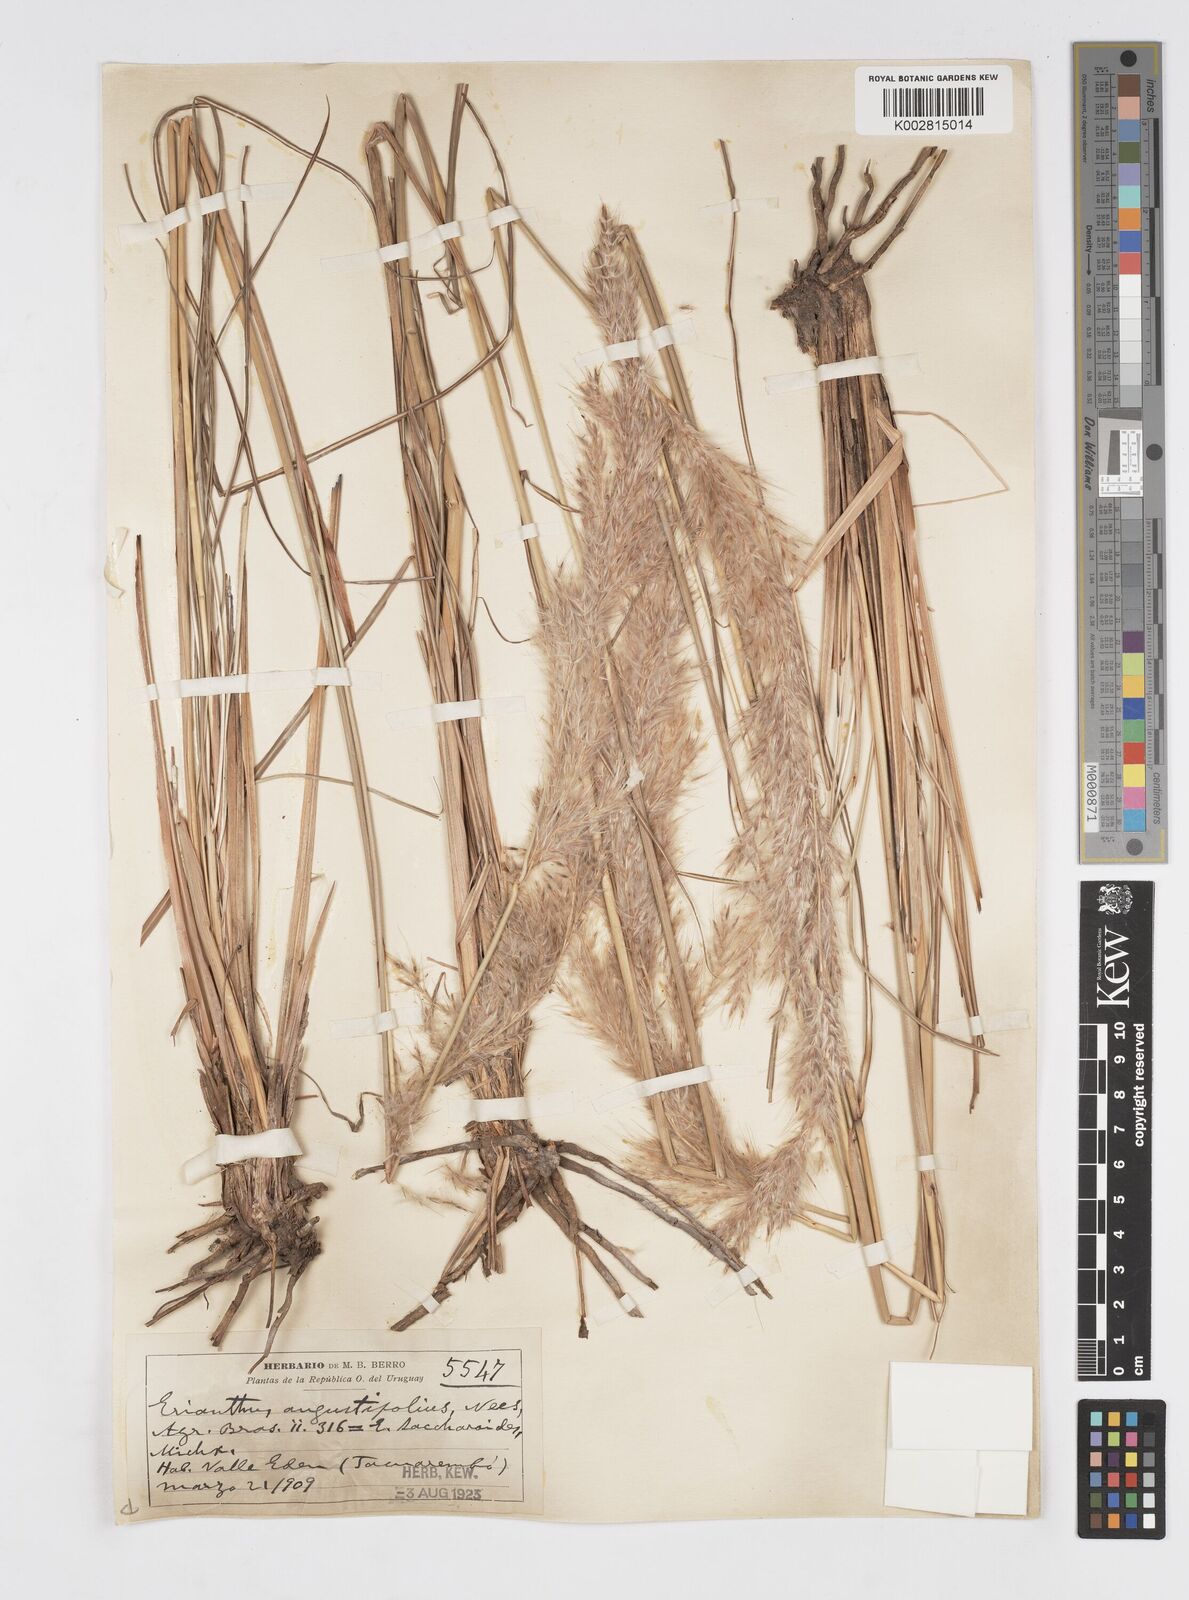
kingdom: Plantae
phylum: Tracheophyta
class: Liliopsida
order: Poales
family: Poaceae
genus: Saccharum
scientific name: Saccharum angustifolium
